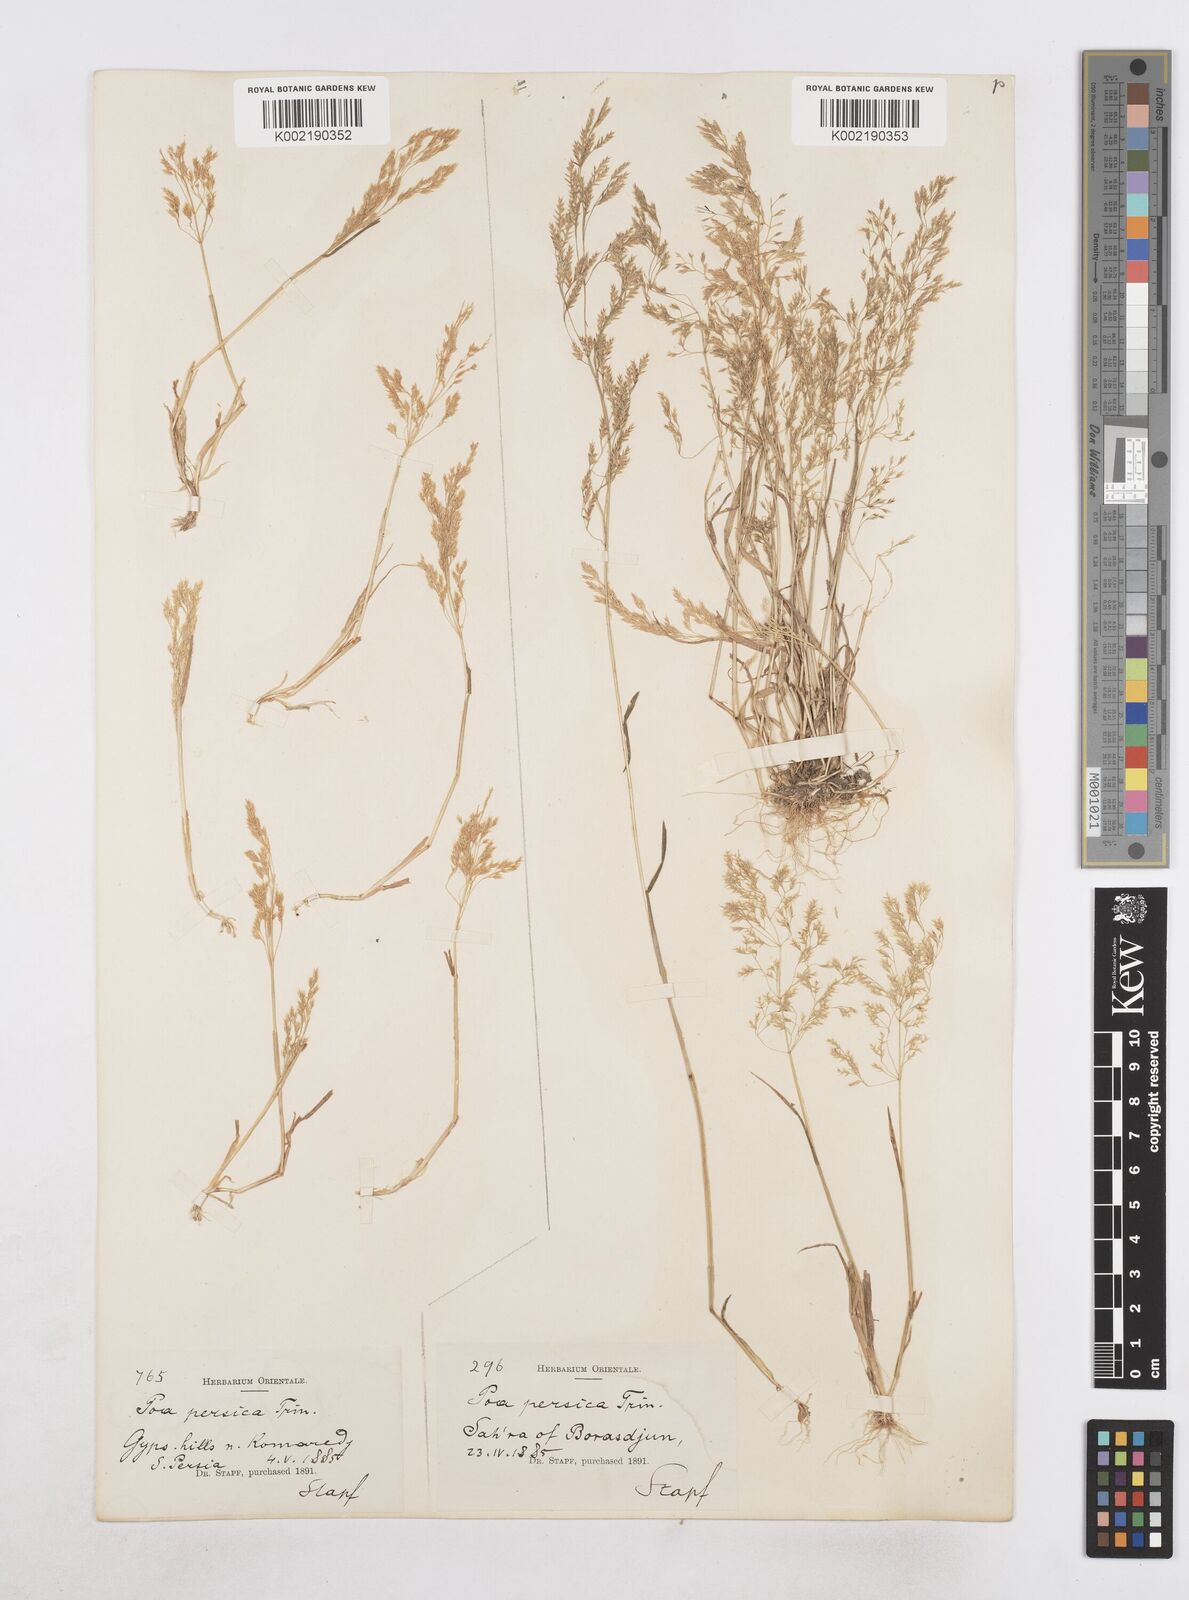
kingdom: Plantae
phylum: Tracheophyta
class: Liliopsida
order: Poales
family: Poaceae
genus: Poa
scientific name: Poa persica
